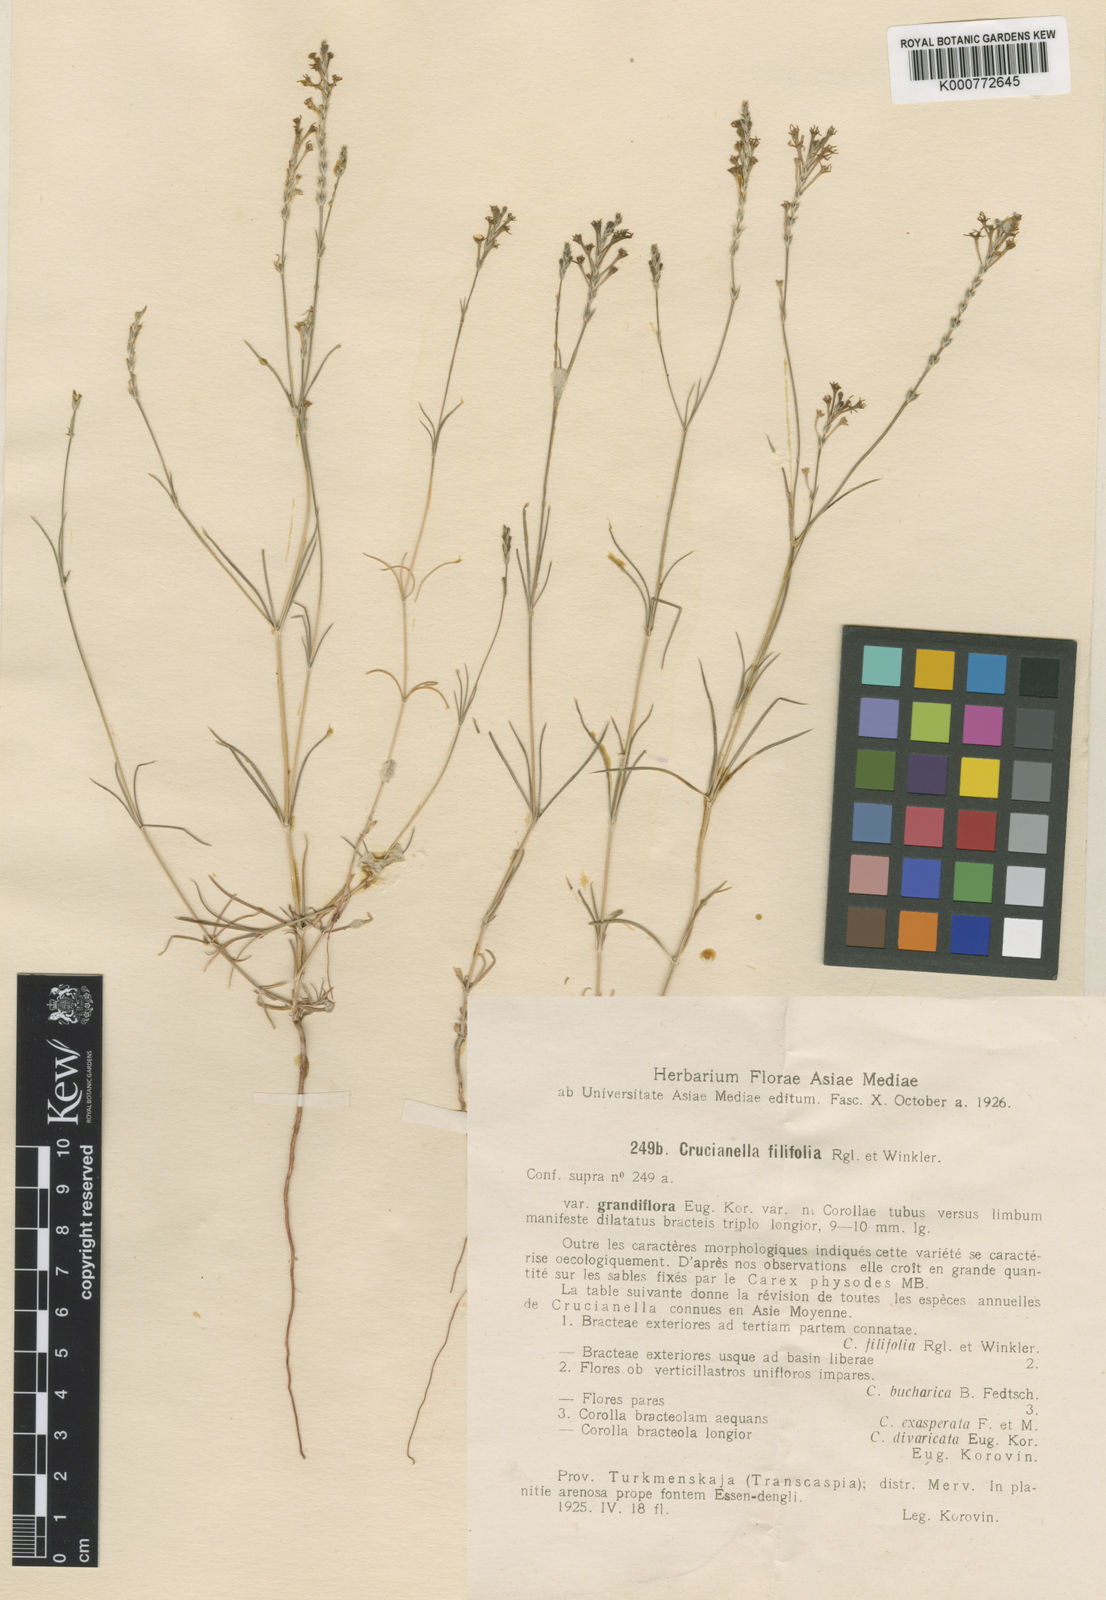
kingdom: Plantae
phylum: Tracheophyta
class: Magnoliopsida
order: Gentianales
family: Rubiaceae
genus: Crucianella
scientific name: Crucianella filifolia
